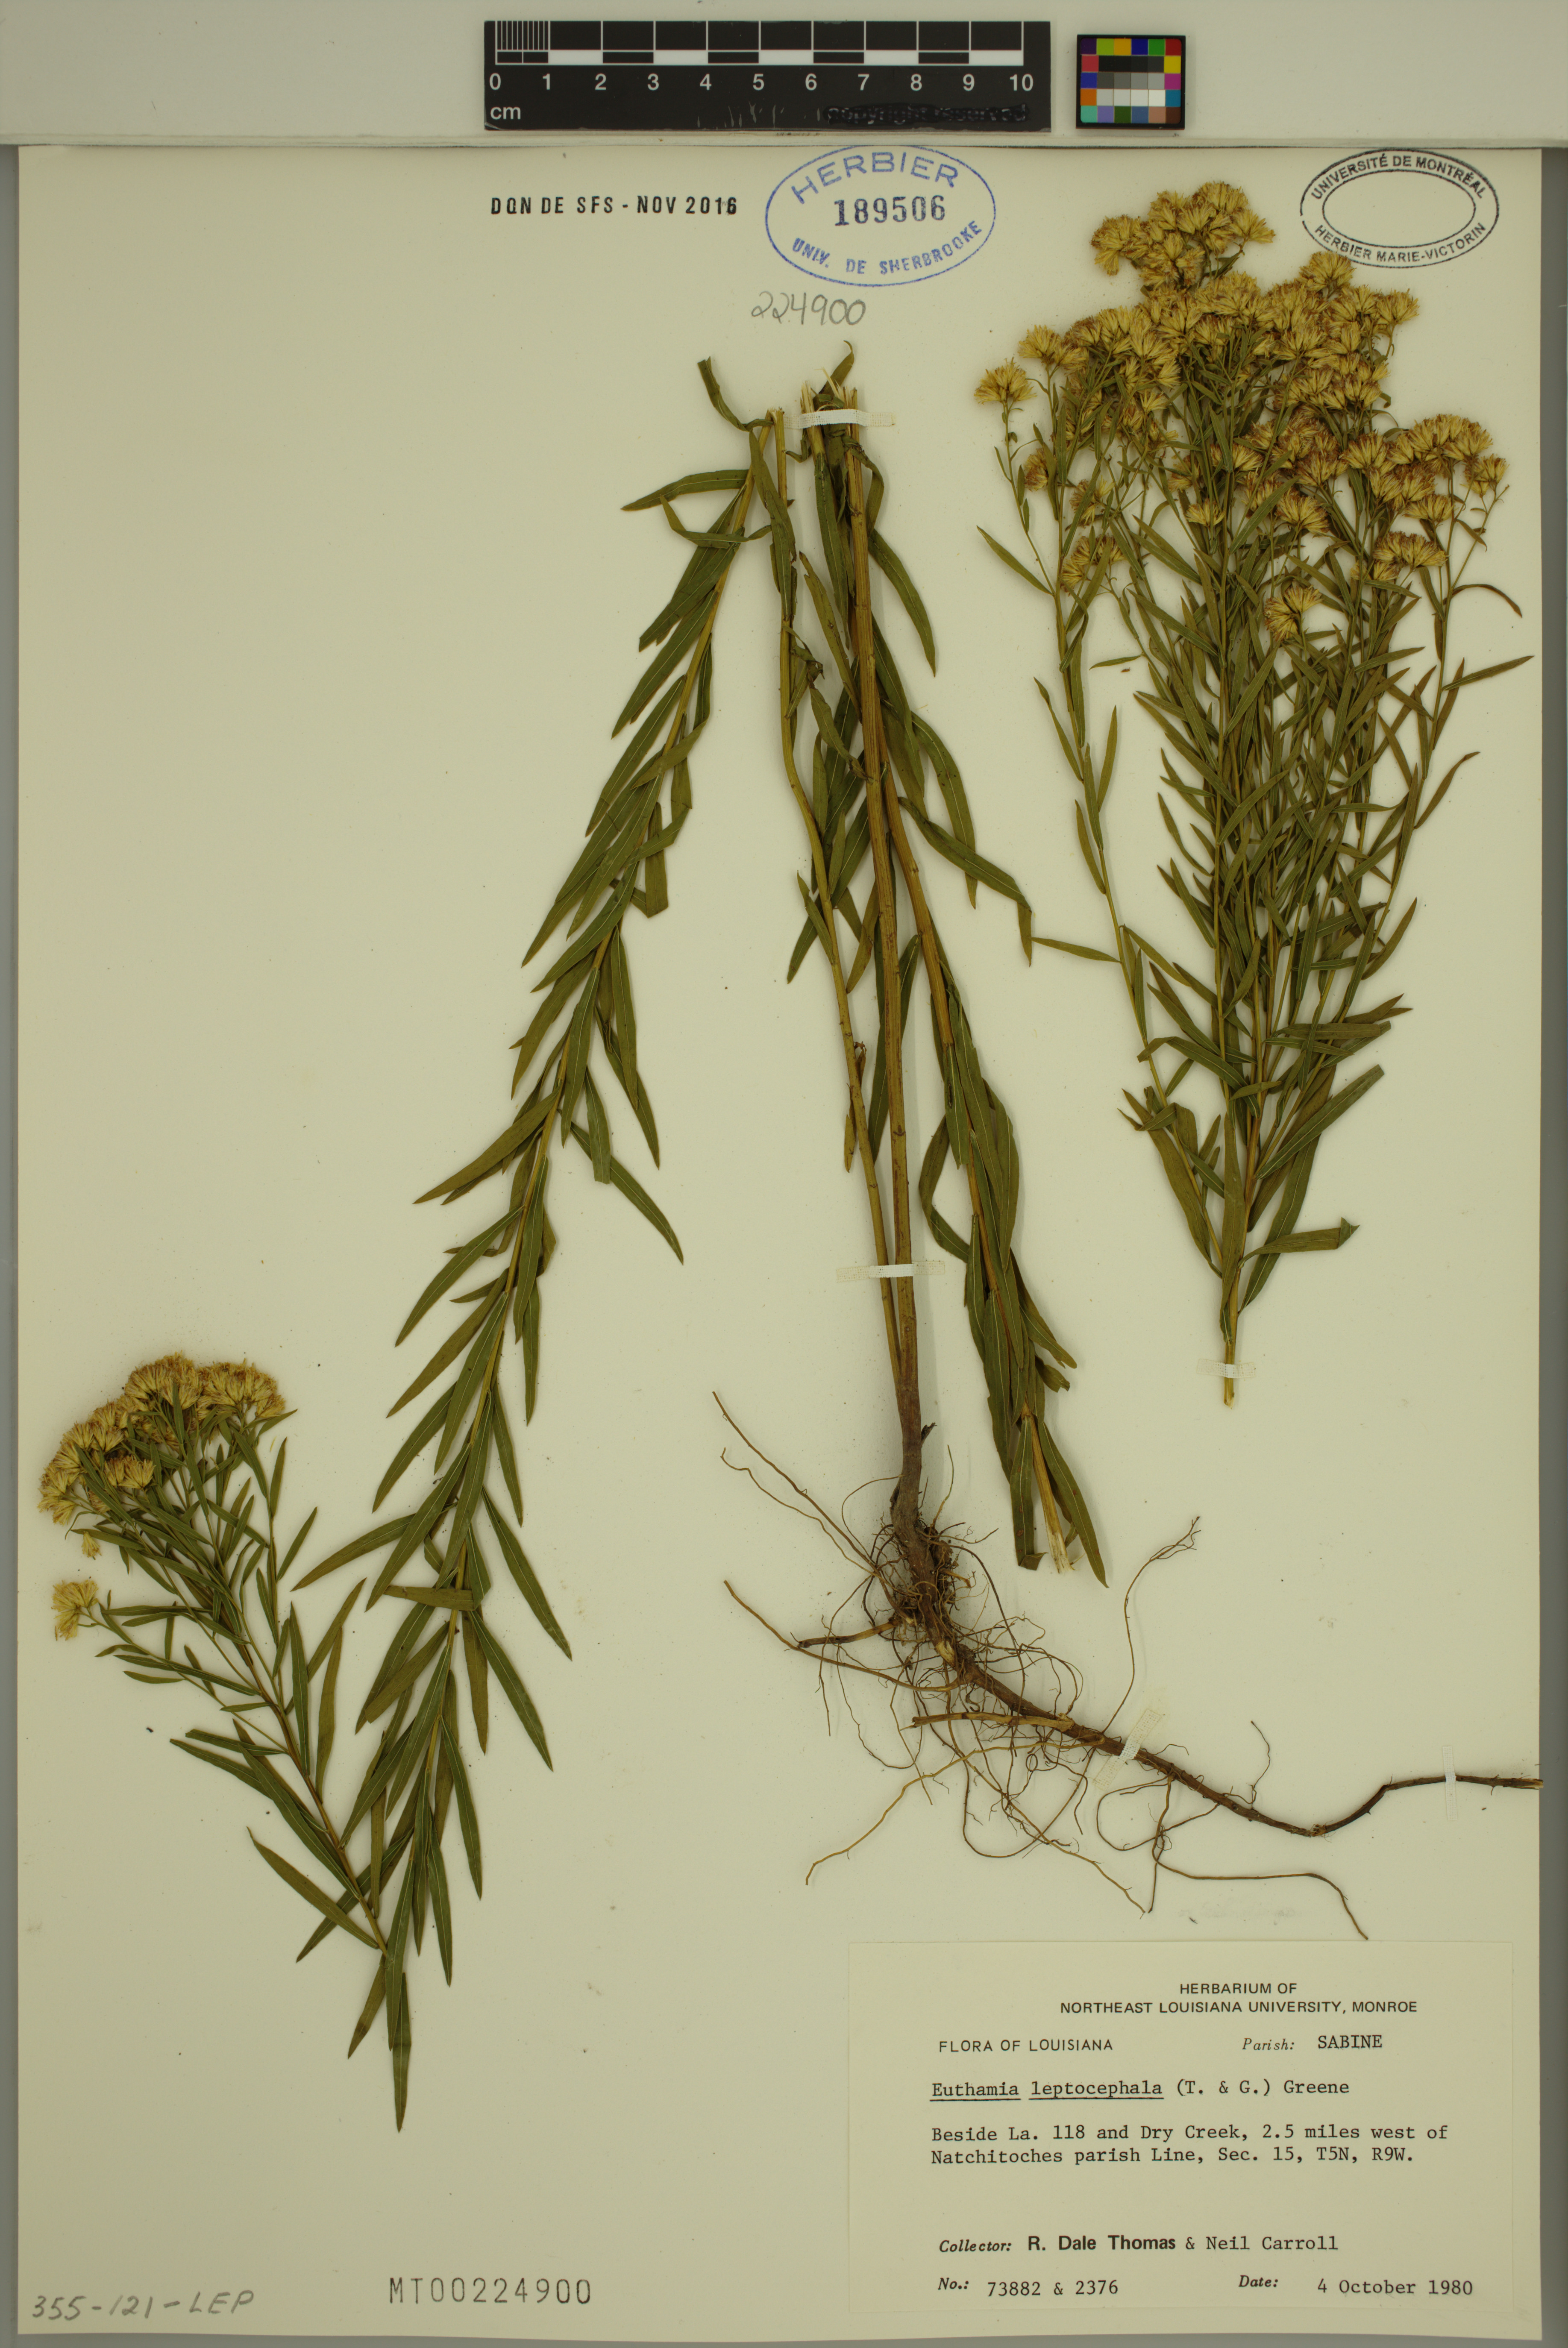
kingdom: Plantae
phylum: Tracheophyta
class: Magnoliopsida
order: Asterales
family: Asteraceae
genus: Euthamia
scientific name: Euthamia leptocephala
